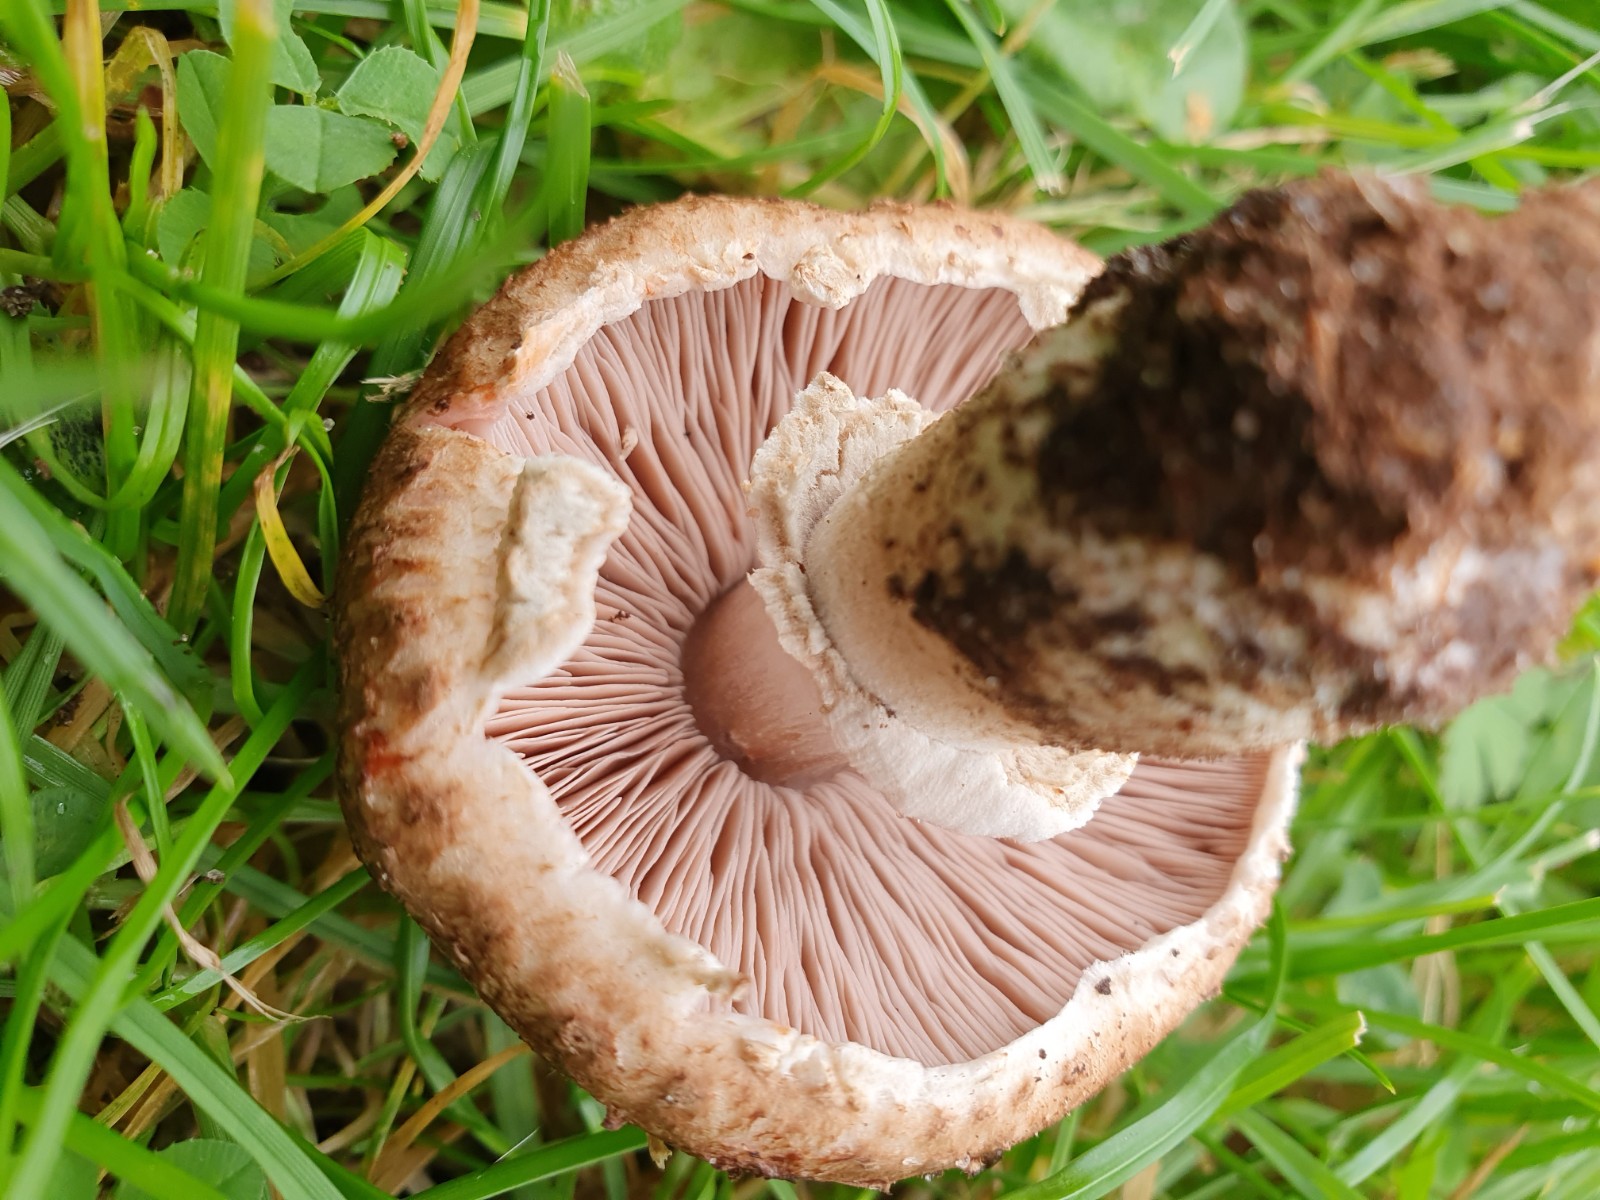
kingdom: Fungi
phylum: Basidiomycota
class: Agaricomycetes
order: Agaricales
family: Agaricaceae
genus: Agaricus
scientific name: Agaricus
